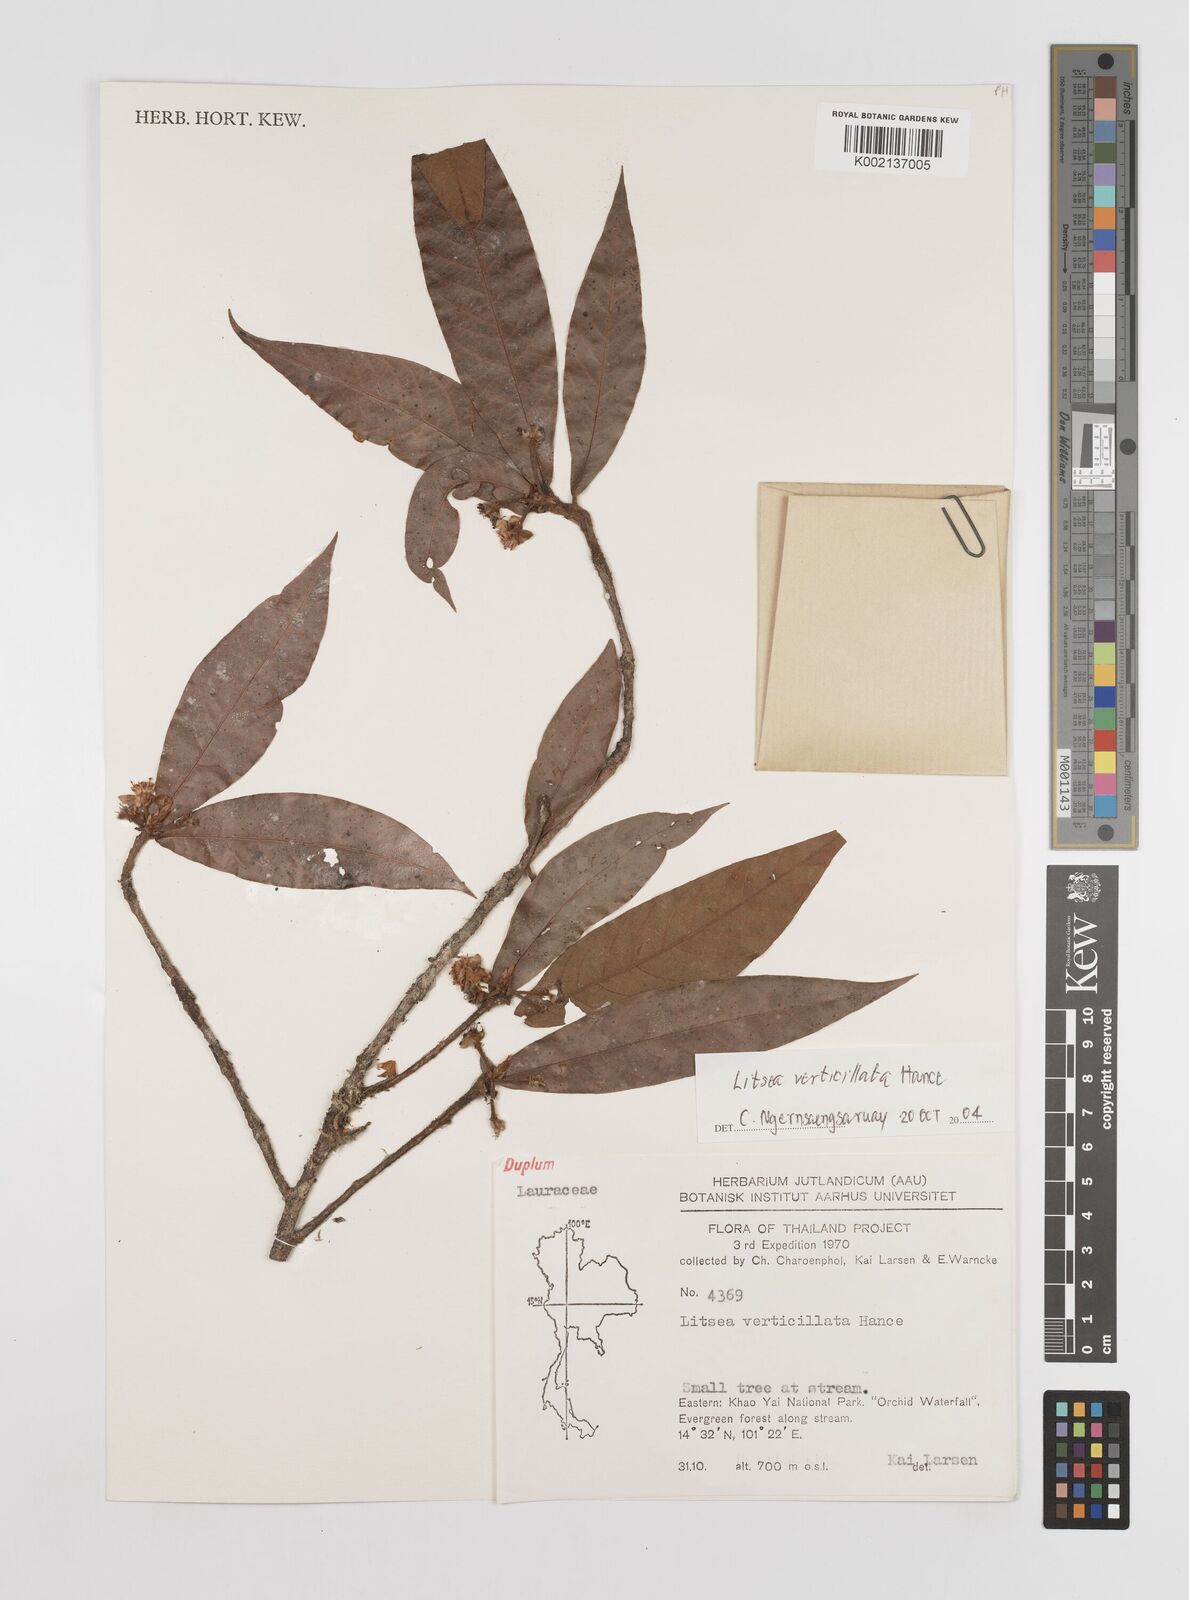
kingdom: Plantae
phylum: Tracheophyta
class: Magnoliopsida
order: Laurales
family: Lauraceae
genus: Litsea
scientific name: Litsea verticillata
